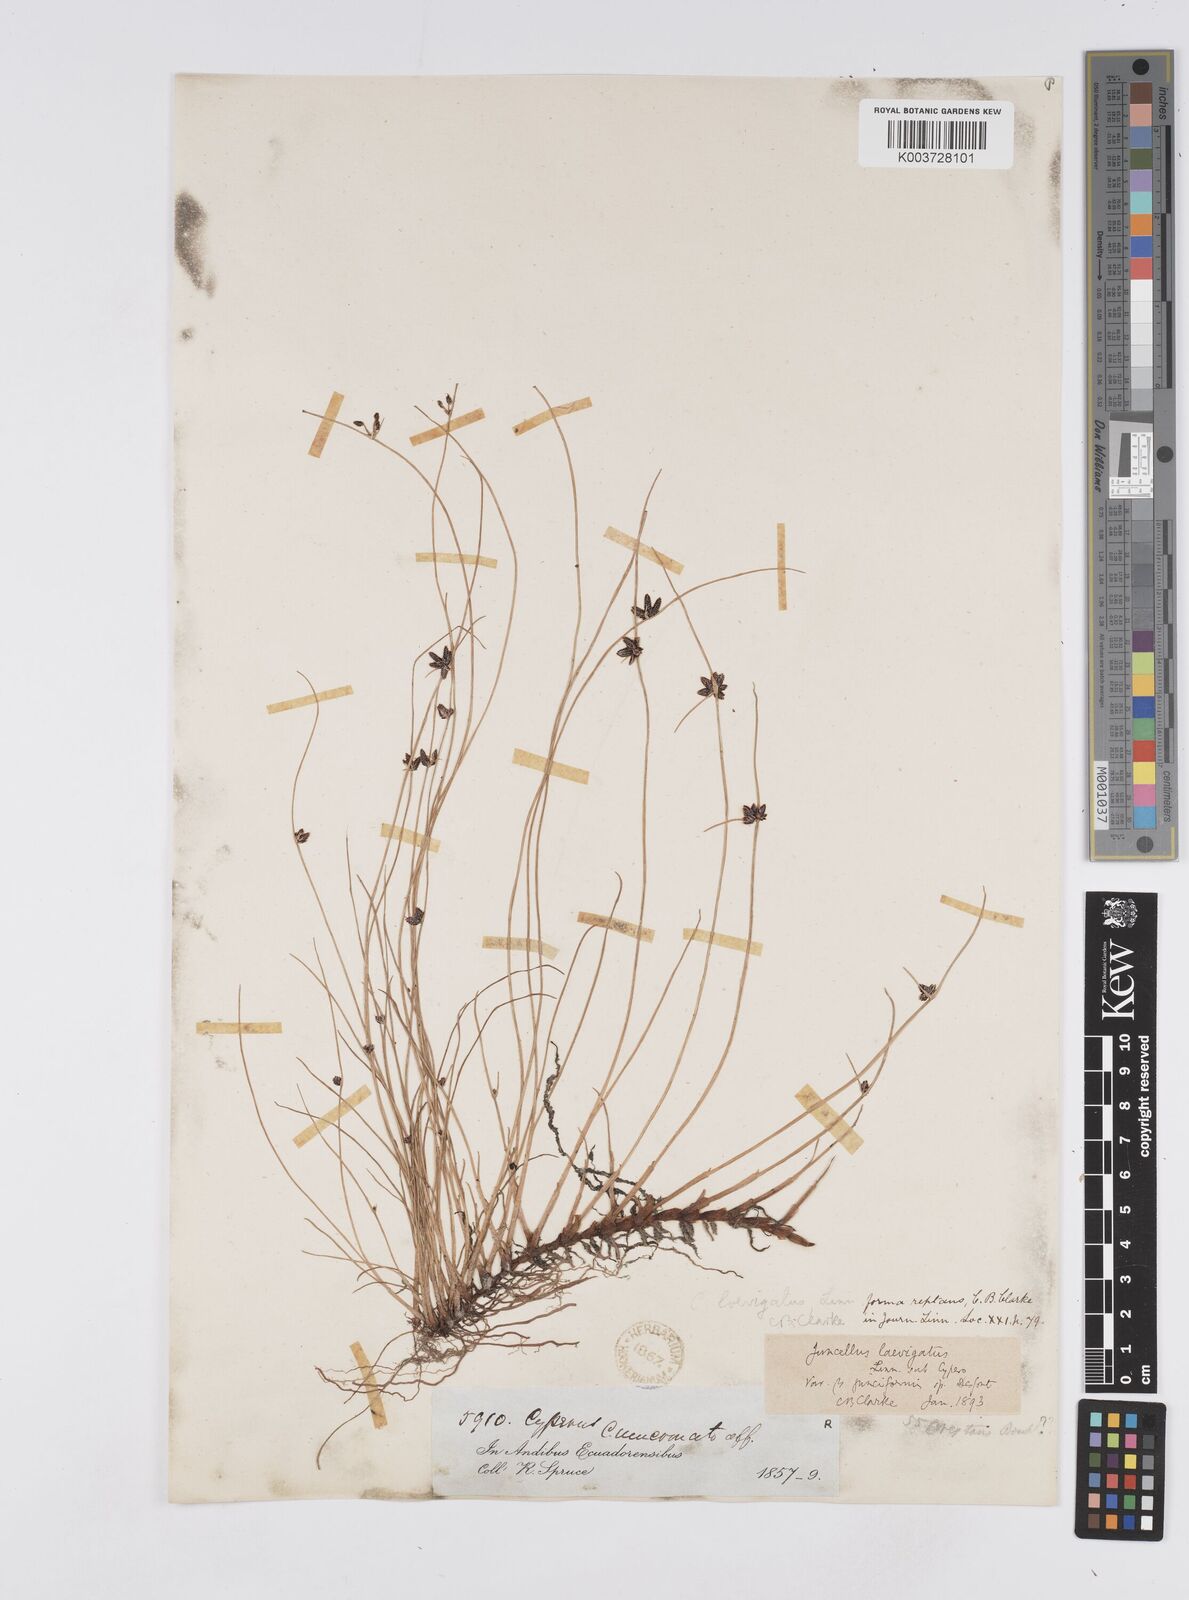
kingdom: Plantae
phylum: Tracheophyta
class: Liliopsida
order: Poales
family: Cyperaceae
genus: Cyperus
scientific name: Cyperus laevigatus
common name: Smooth flat sedge
